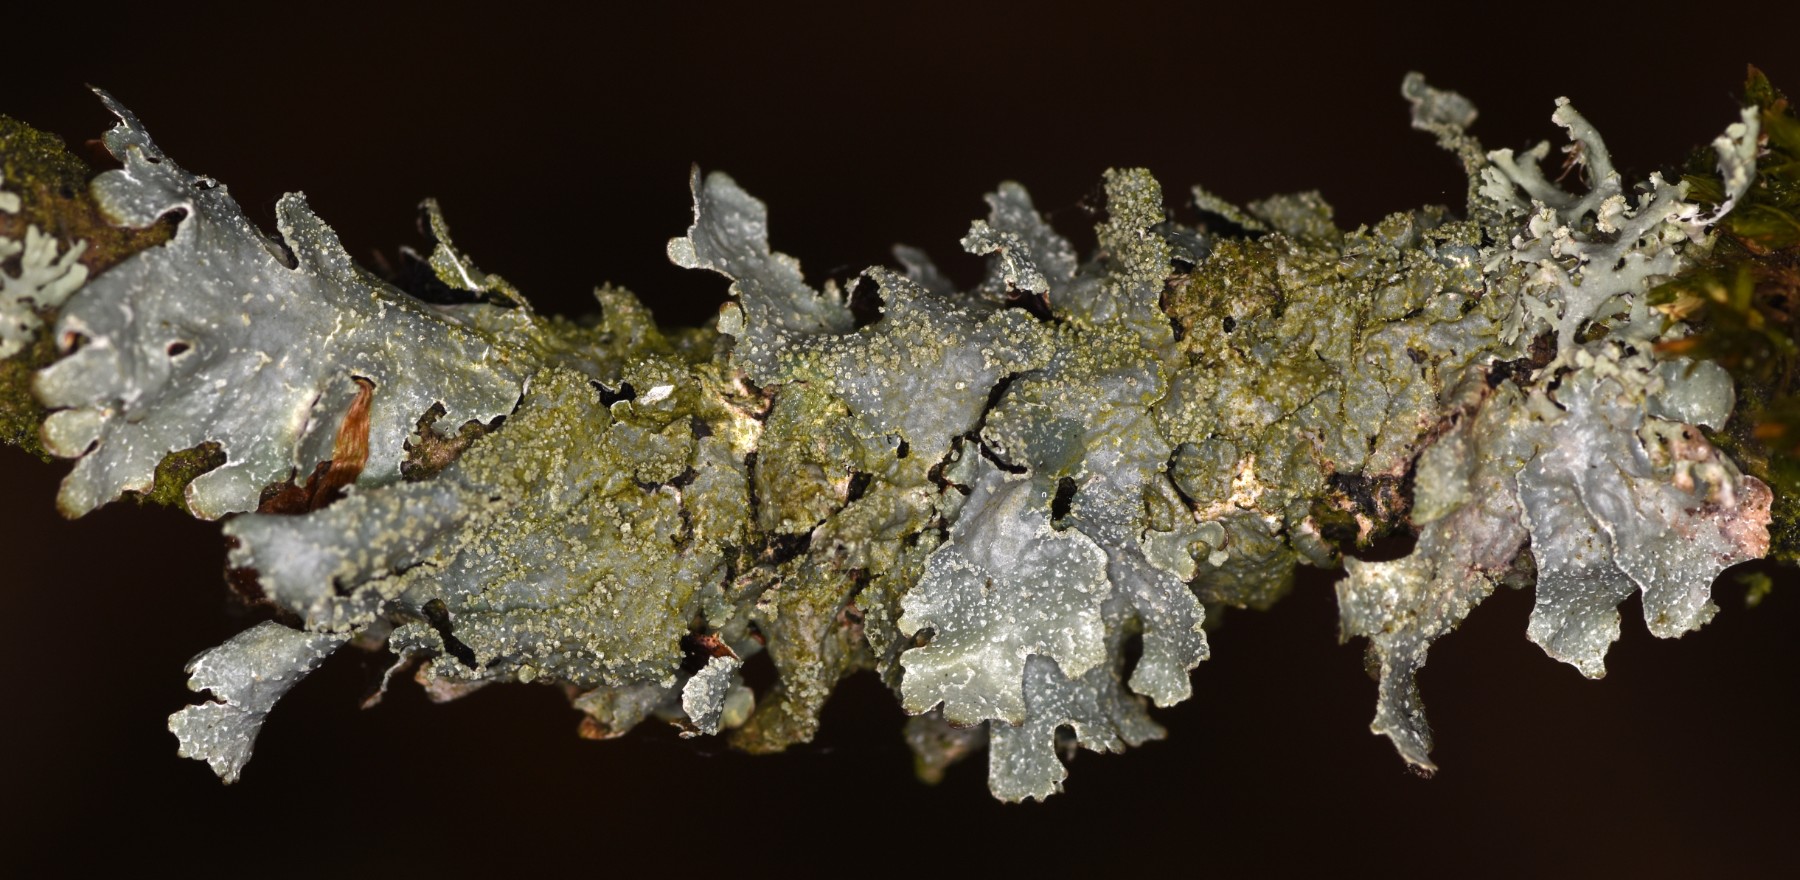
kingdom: Fungi
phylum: Ascomycota
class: Lecanoromycetes
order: Lecanorales
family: Parmeliaceae
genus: Parmelia
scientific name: Parmelia submontana
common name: langlobet skållav
